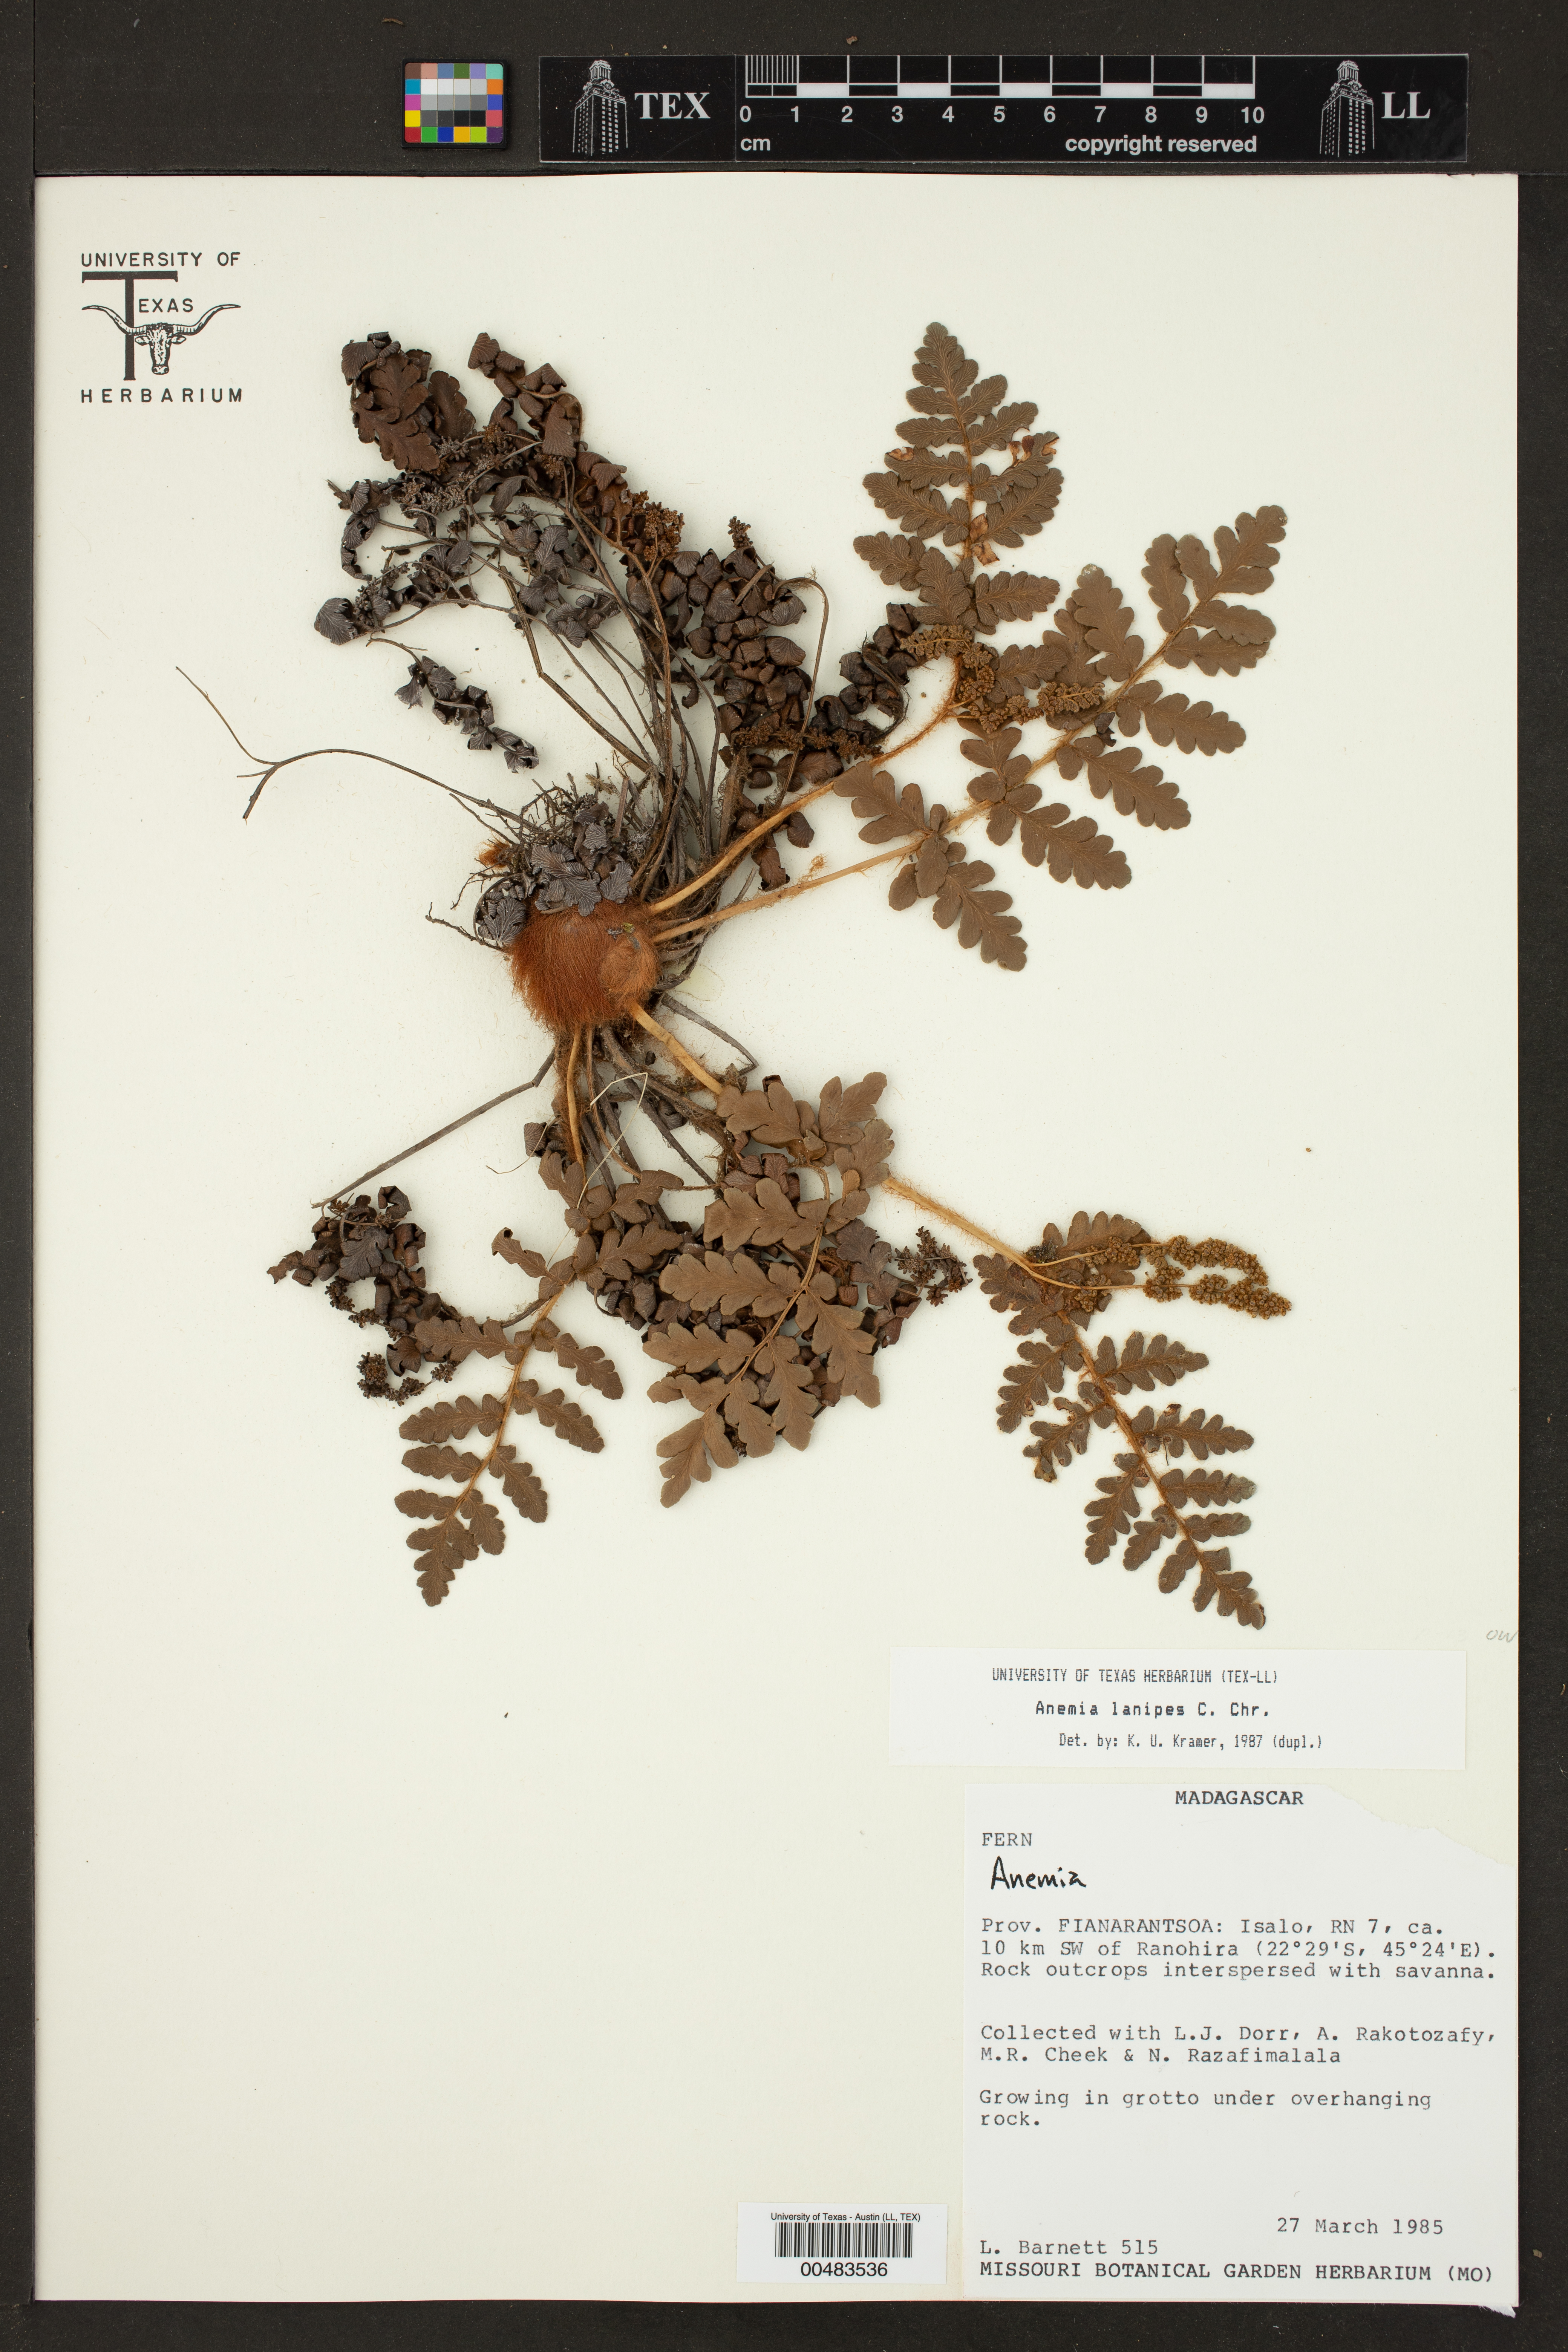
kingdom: Plantae
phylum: Tracheophyta
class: Polypodiopsida
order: Schizaeales
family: Anemiaceae
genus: Anemia
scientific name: Anemia lanipes
